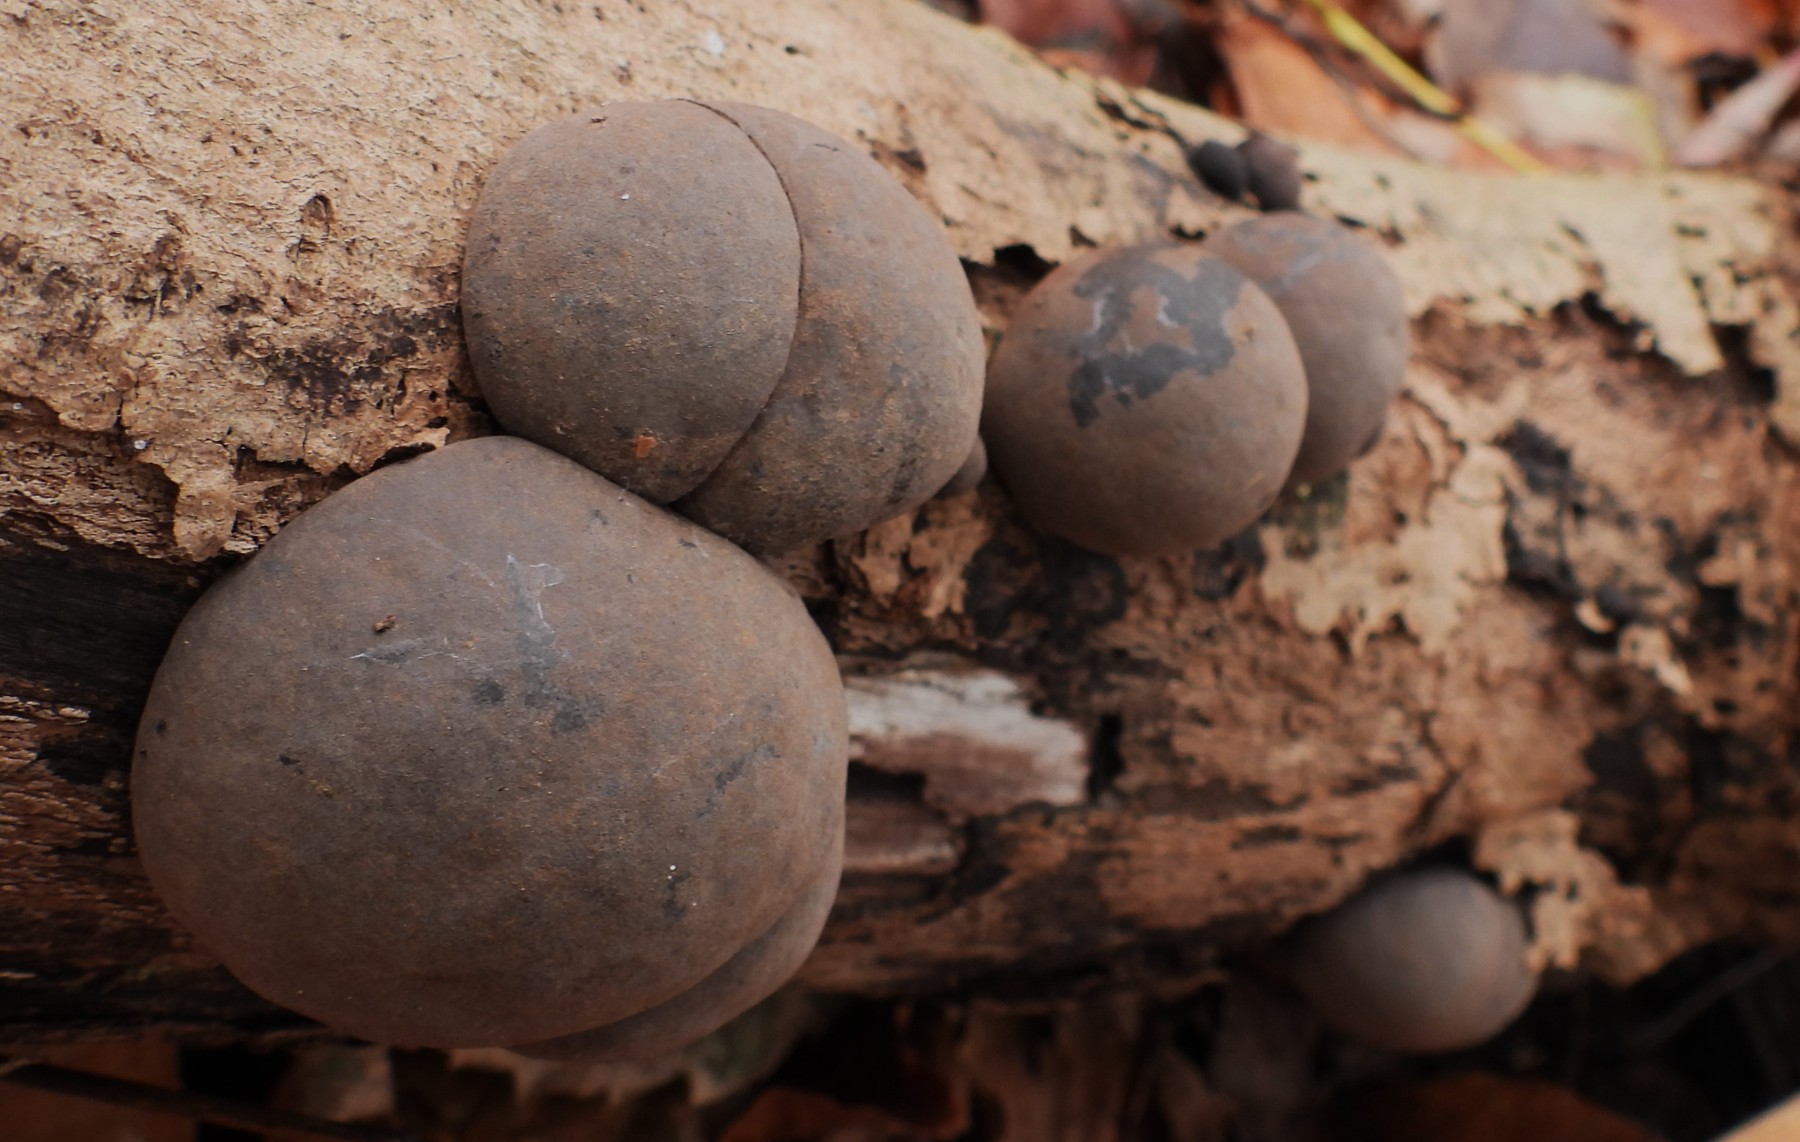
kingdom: Fungi
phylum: Ascomycota
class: Sordariomycetes
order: Xylariales
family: Hypoxylaceae
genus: Daldinia
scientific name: Daldinia concentrica
